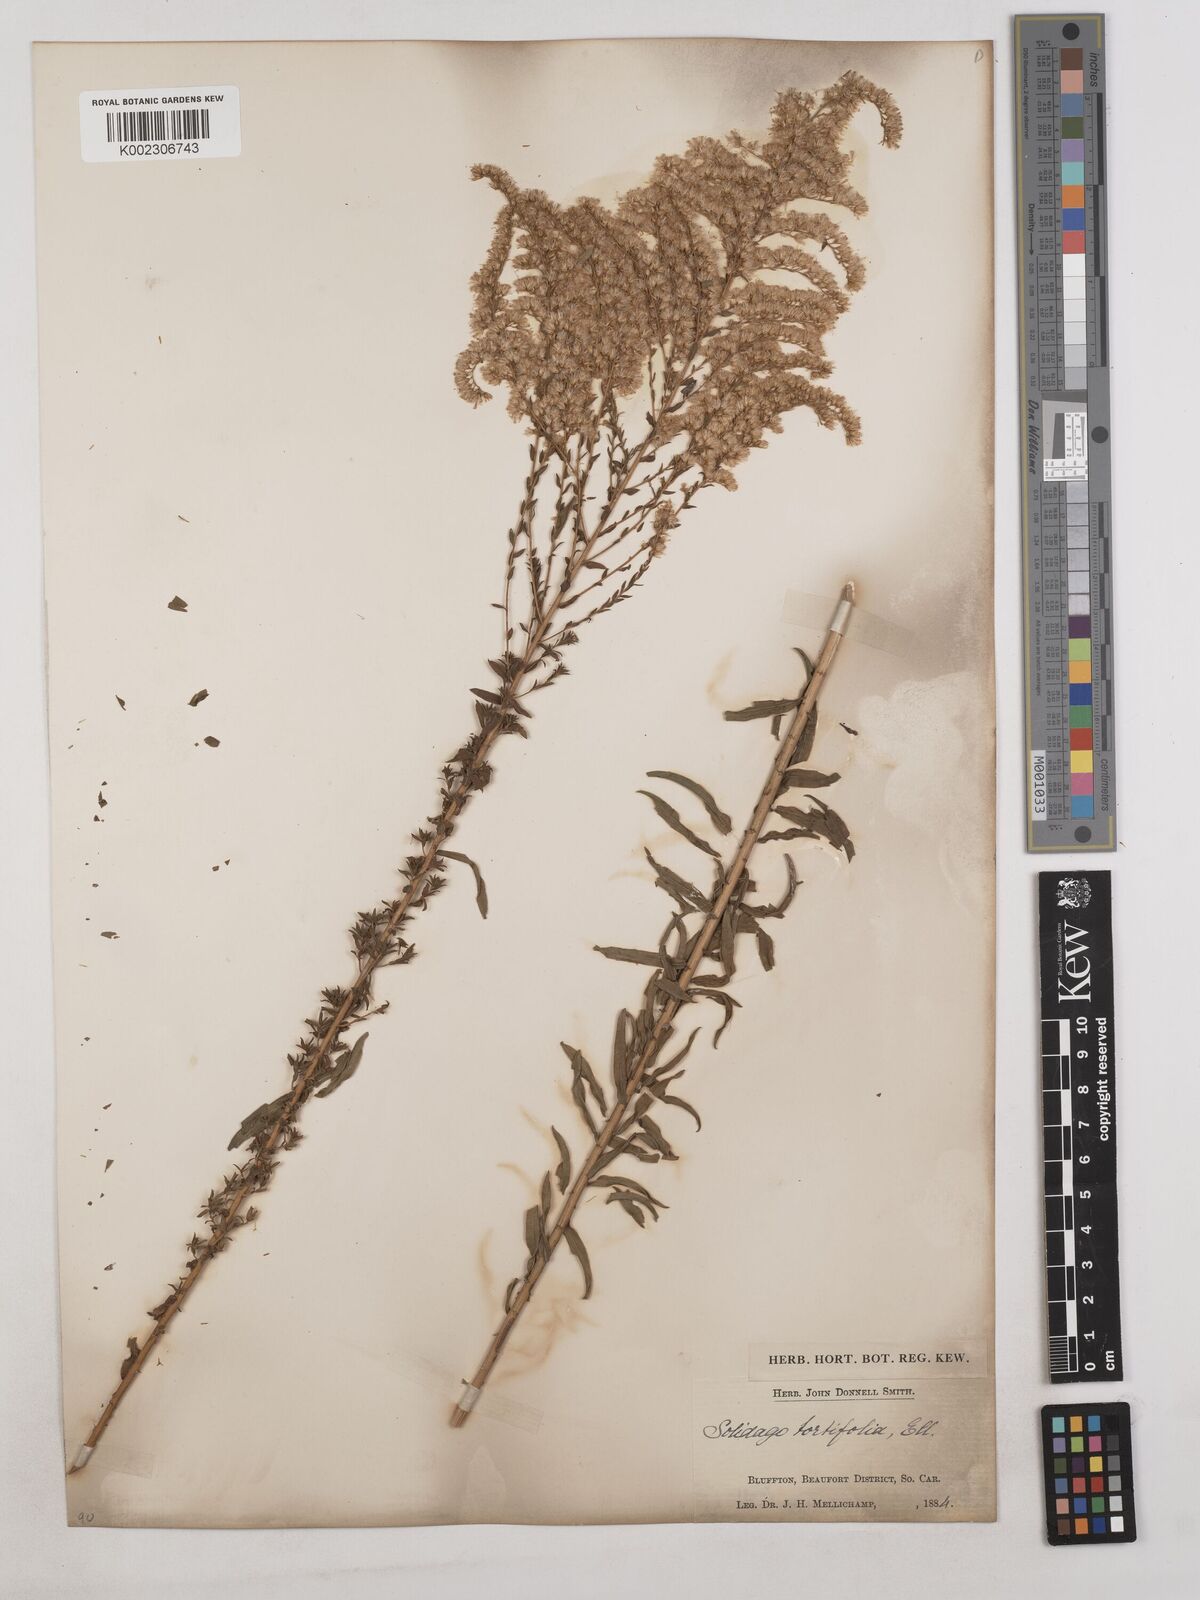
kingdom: Plantae
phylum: Tracheophyta
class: Magnoliopsida
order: Asterales
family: Asteraceae
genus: Solidago
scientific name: Solidago tortifolia
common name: Twisted-leaf goldenrod
